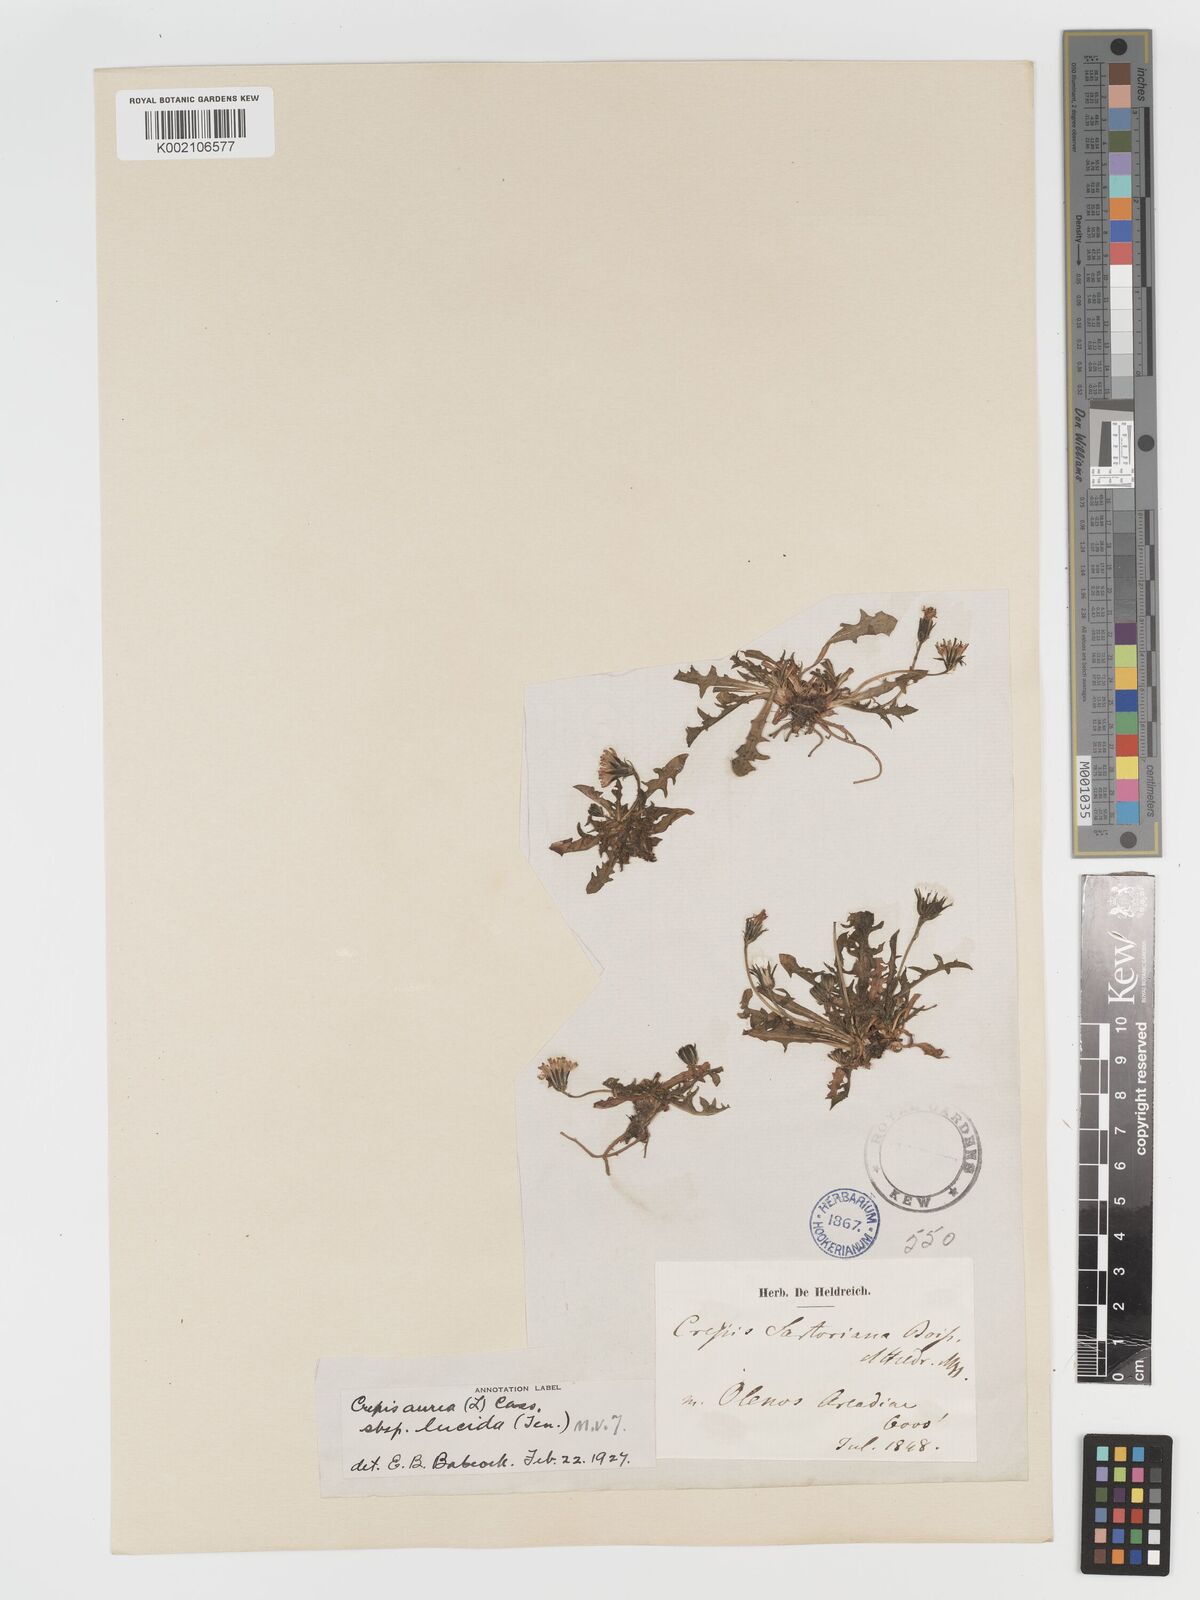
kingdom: Plantae
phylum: Tracheophyta
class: Magnoliopsida
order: Asterales
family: Asteraceae
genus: Crepis
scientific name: Crepis aurea
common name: Golden hawk's-beard
